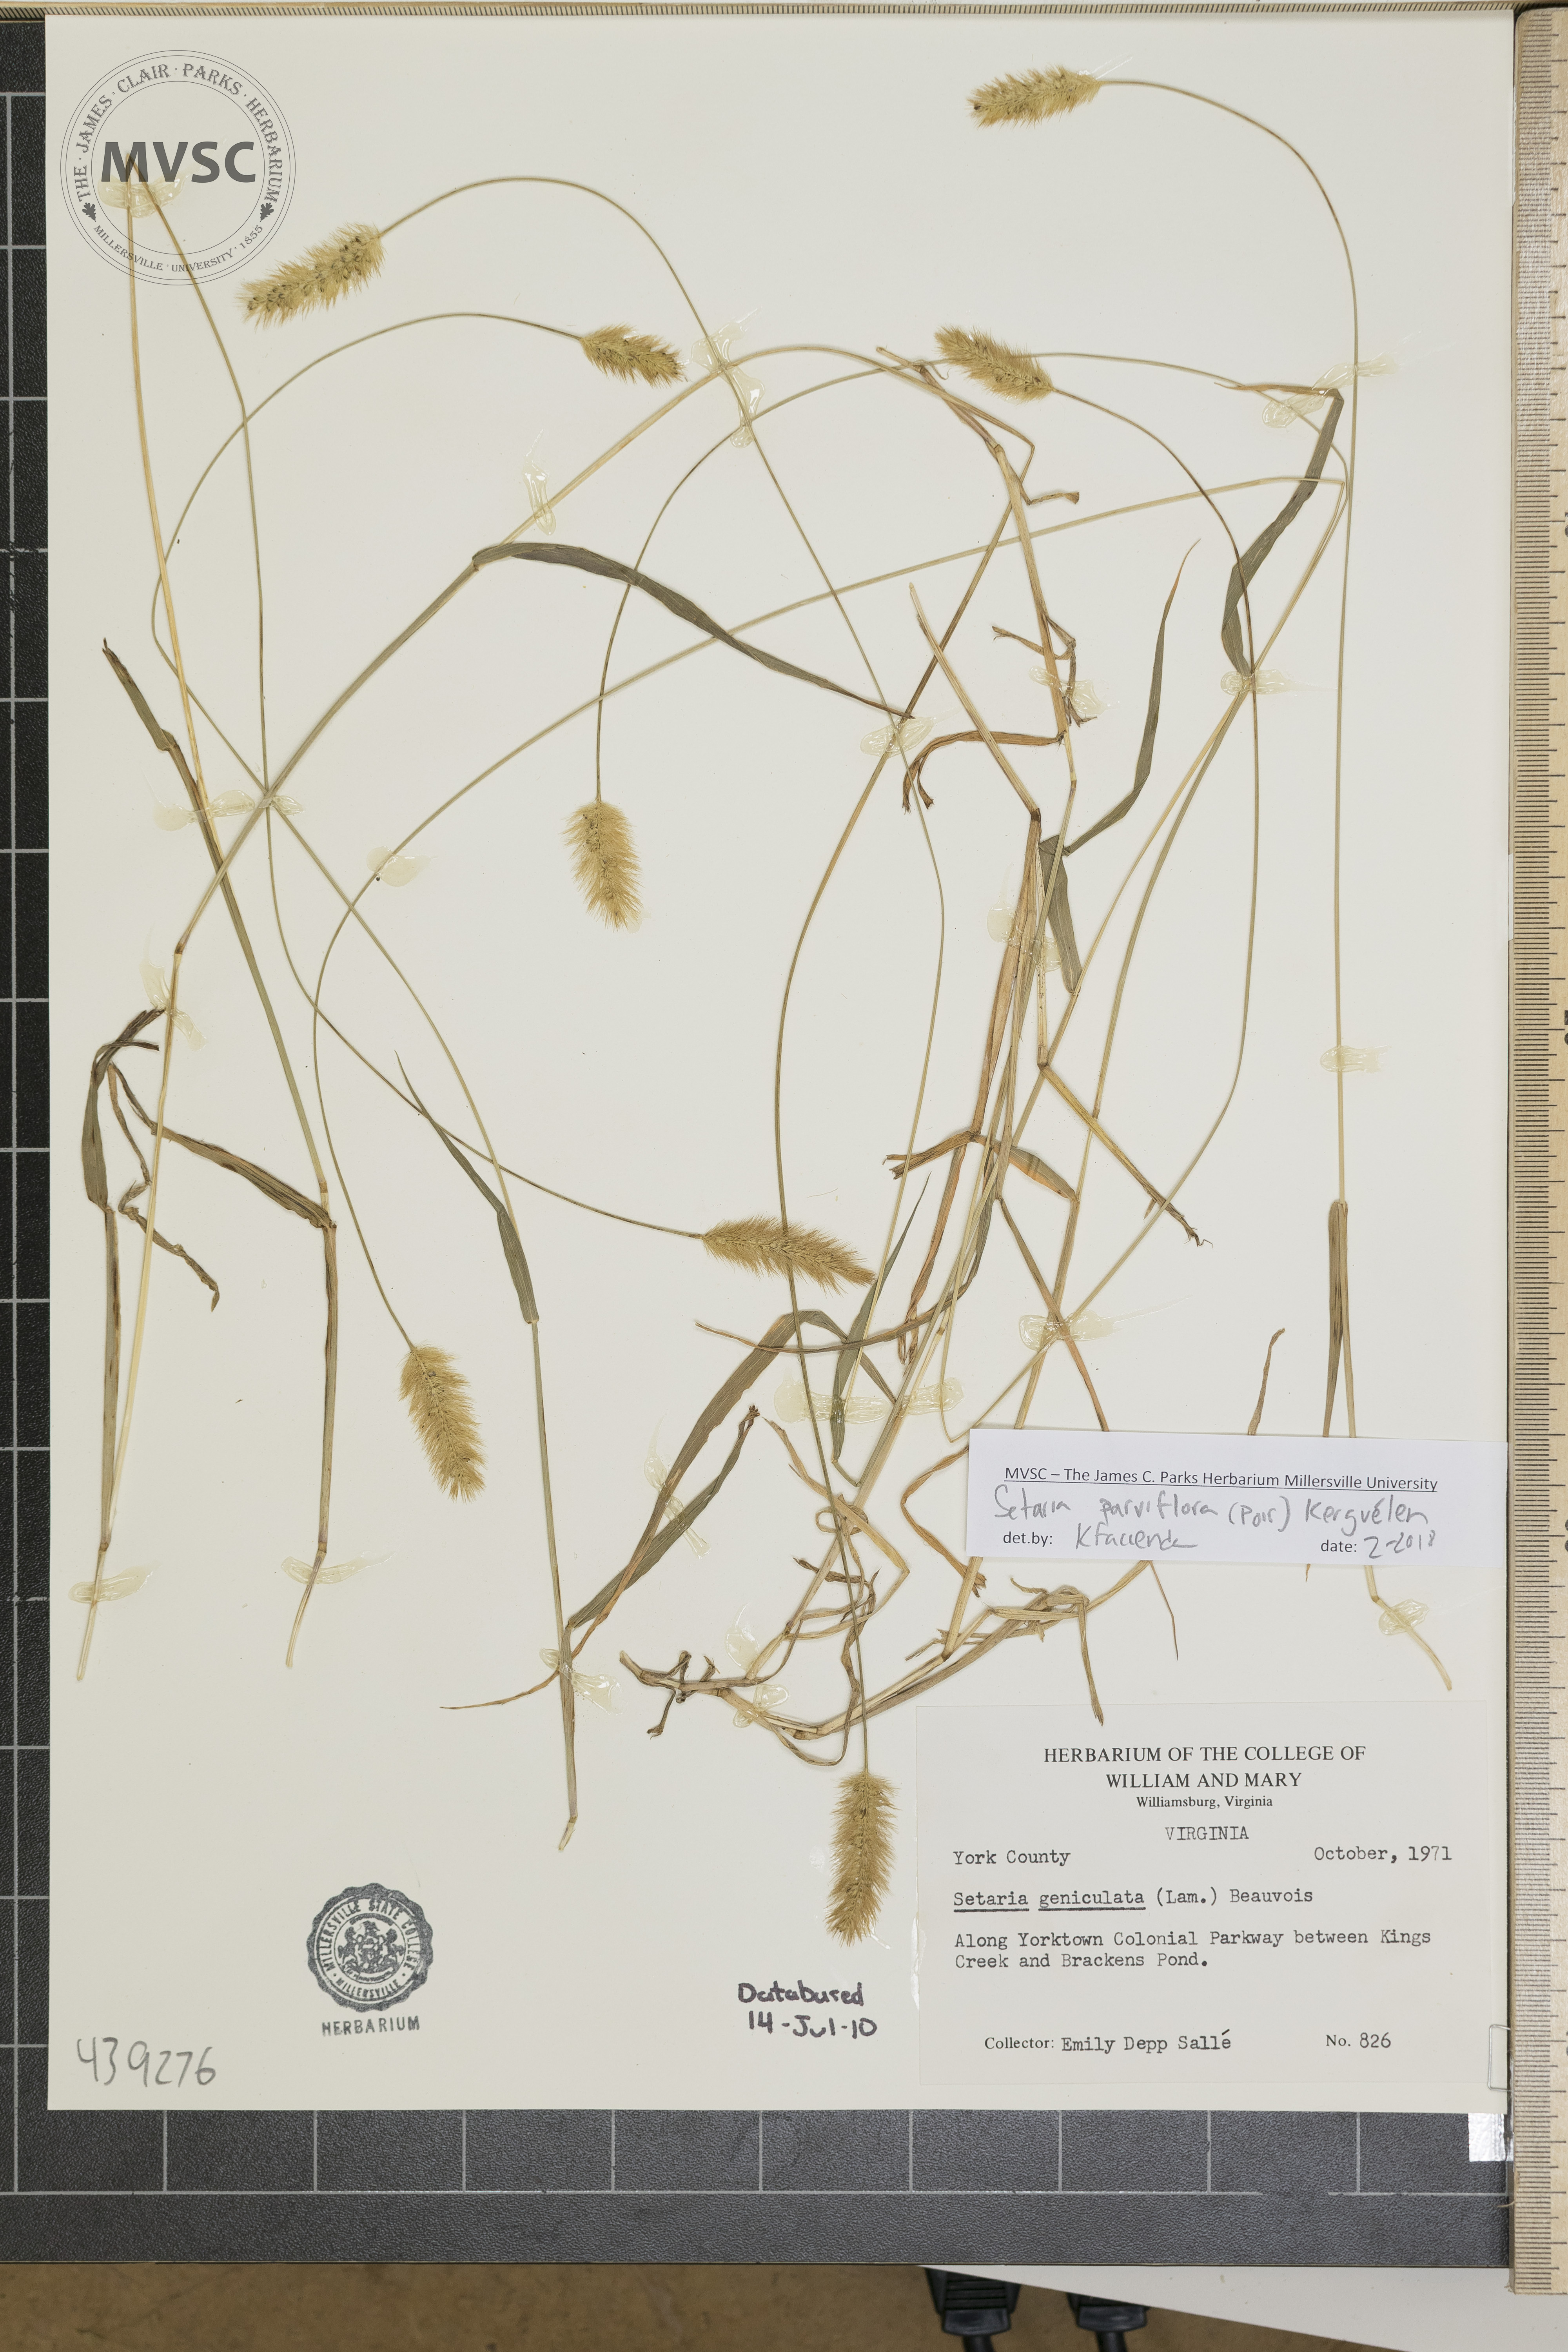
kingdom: Plantae
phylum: Tracheophyta
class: Liliopsida
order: Poales
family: Poaceae
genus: Setaria
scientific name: Setaria parviflora
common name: Knotroot bristle-grass
